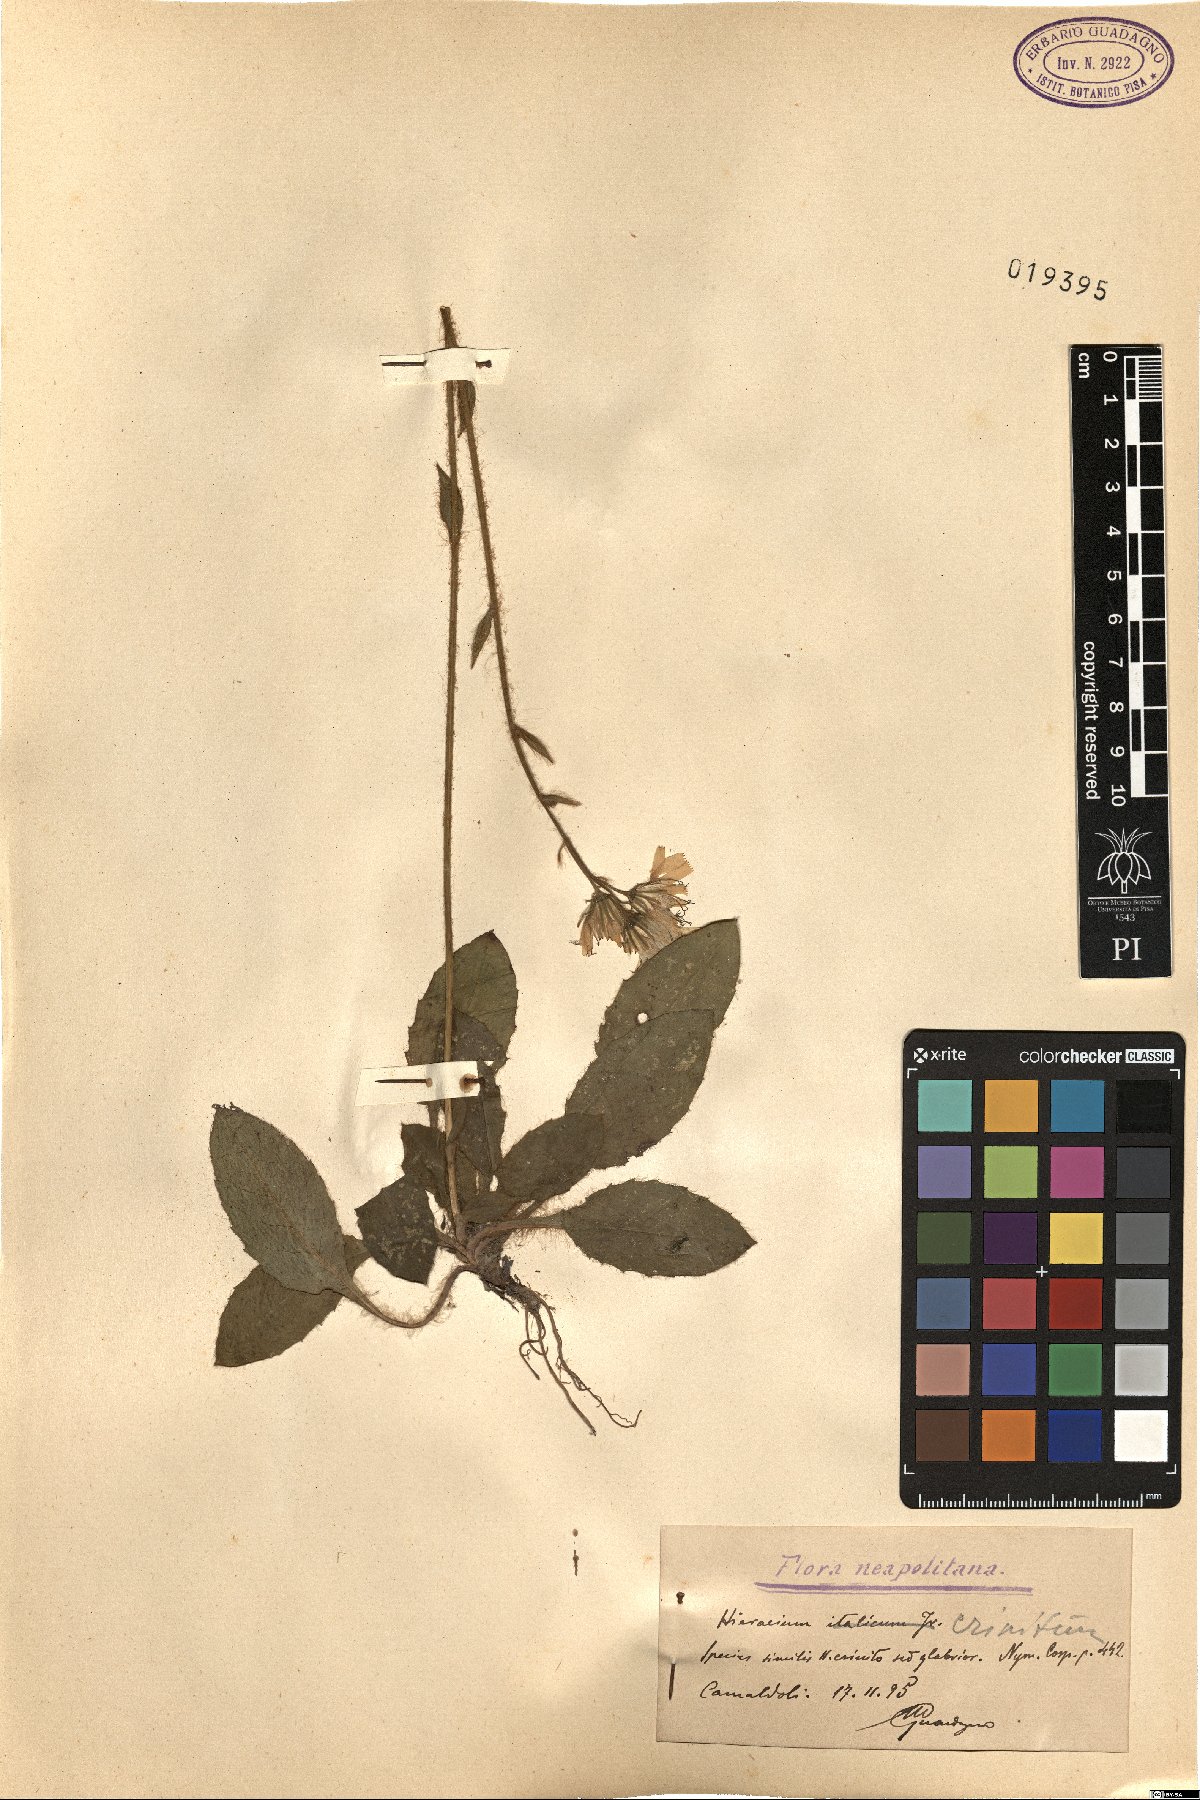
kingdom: Plantae
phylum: Tracheophyta
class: Magnoliopsida
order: Asterales
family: Asteraceae
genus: Hieracium
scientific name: Hieracium racemosum
